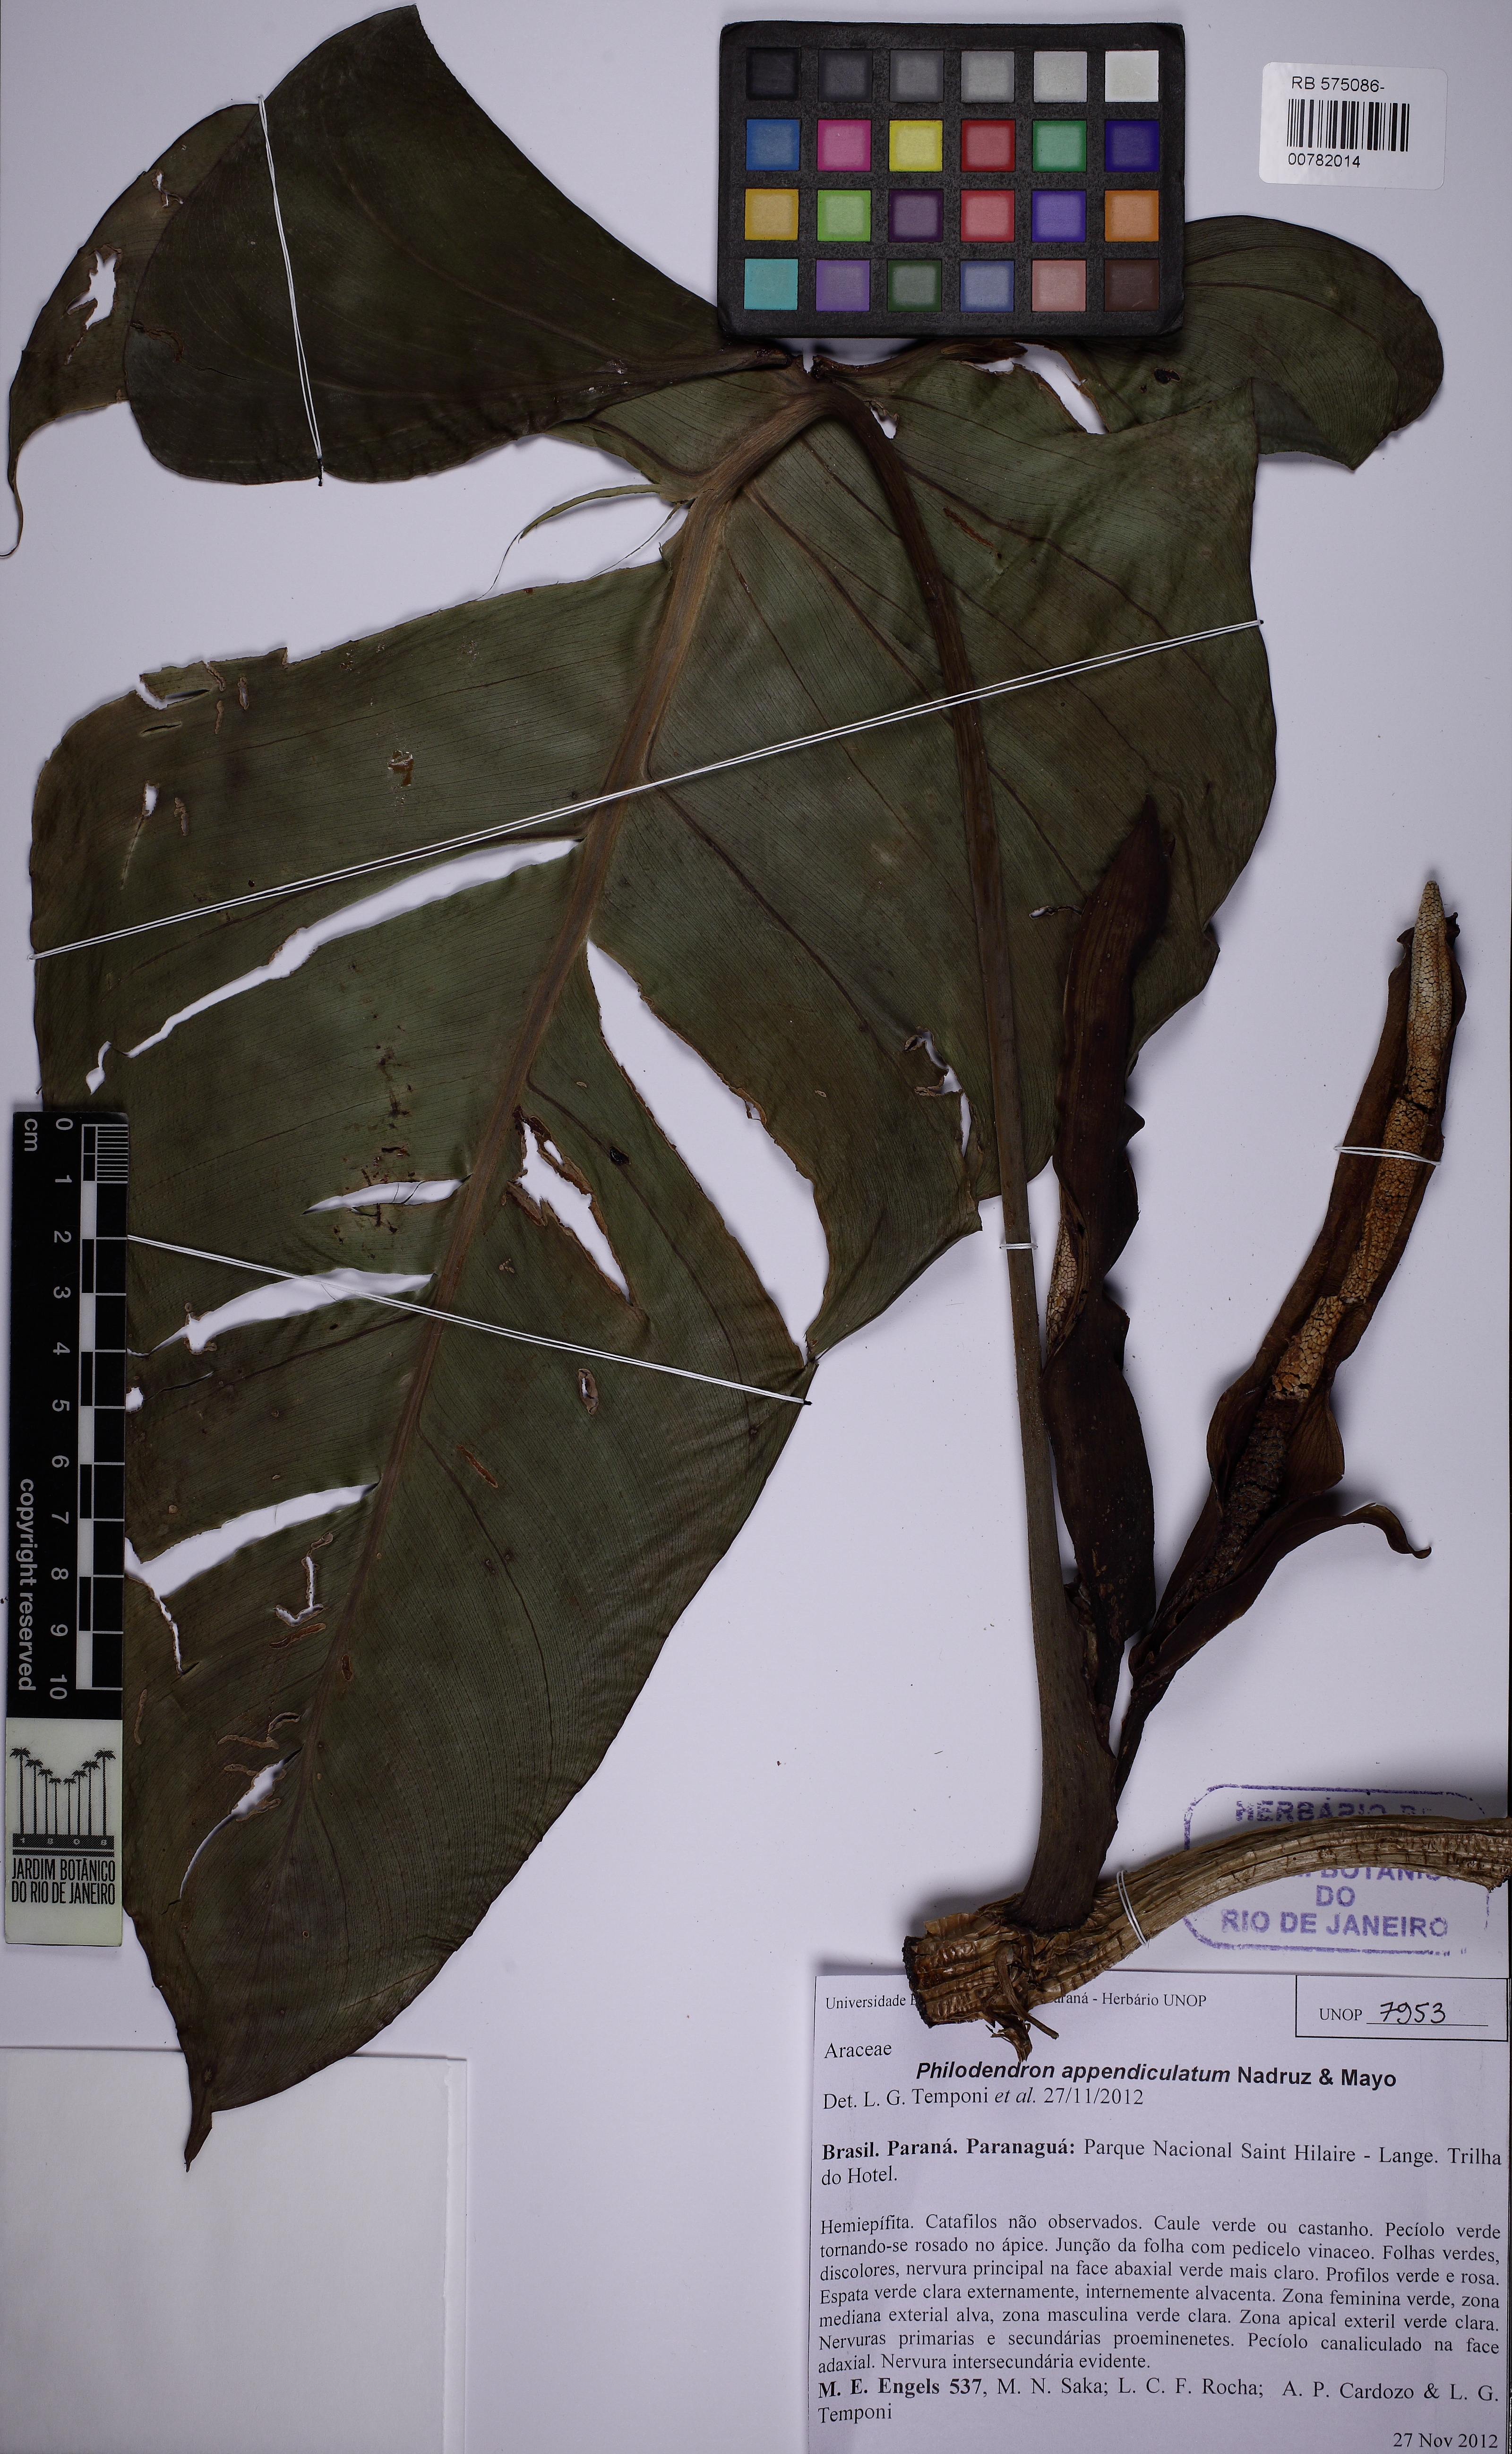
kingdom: Plantae
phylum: Tracheophyta
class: Liliopsida
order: Alismatales
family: Araceae
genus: Philodendron
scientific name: Philodendron appendiculatum
